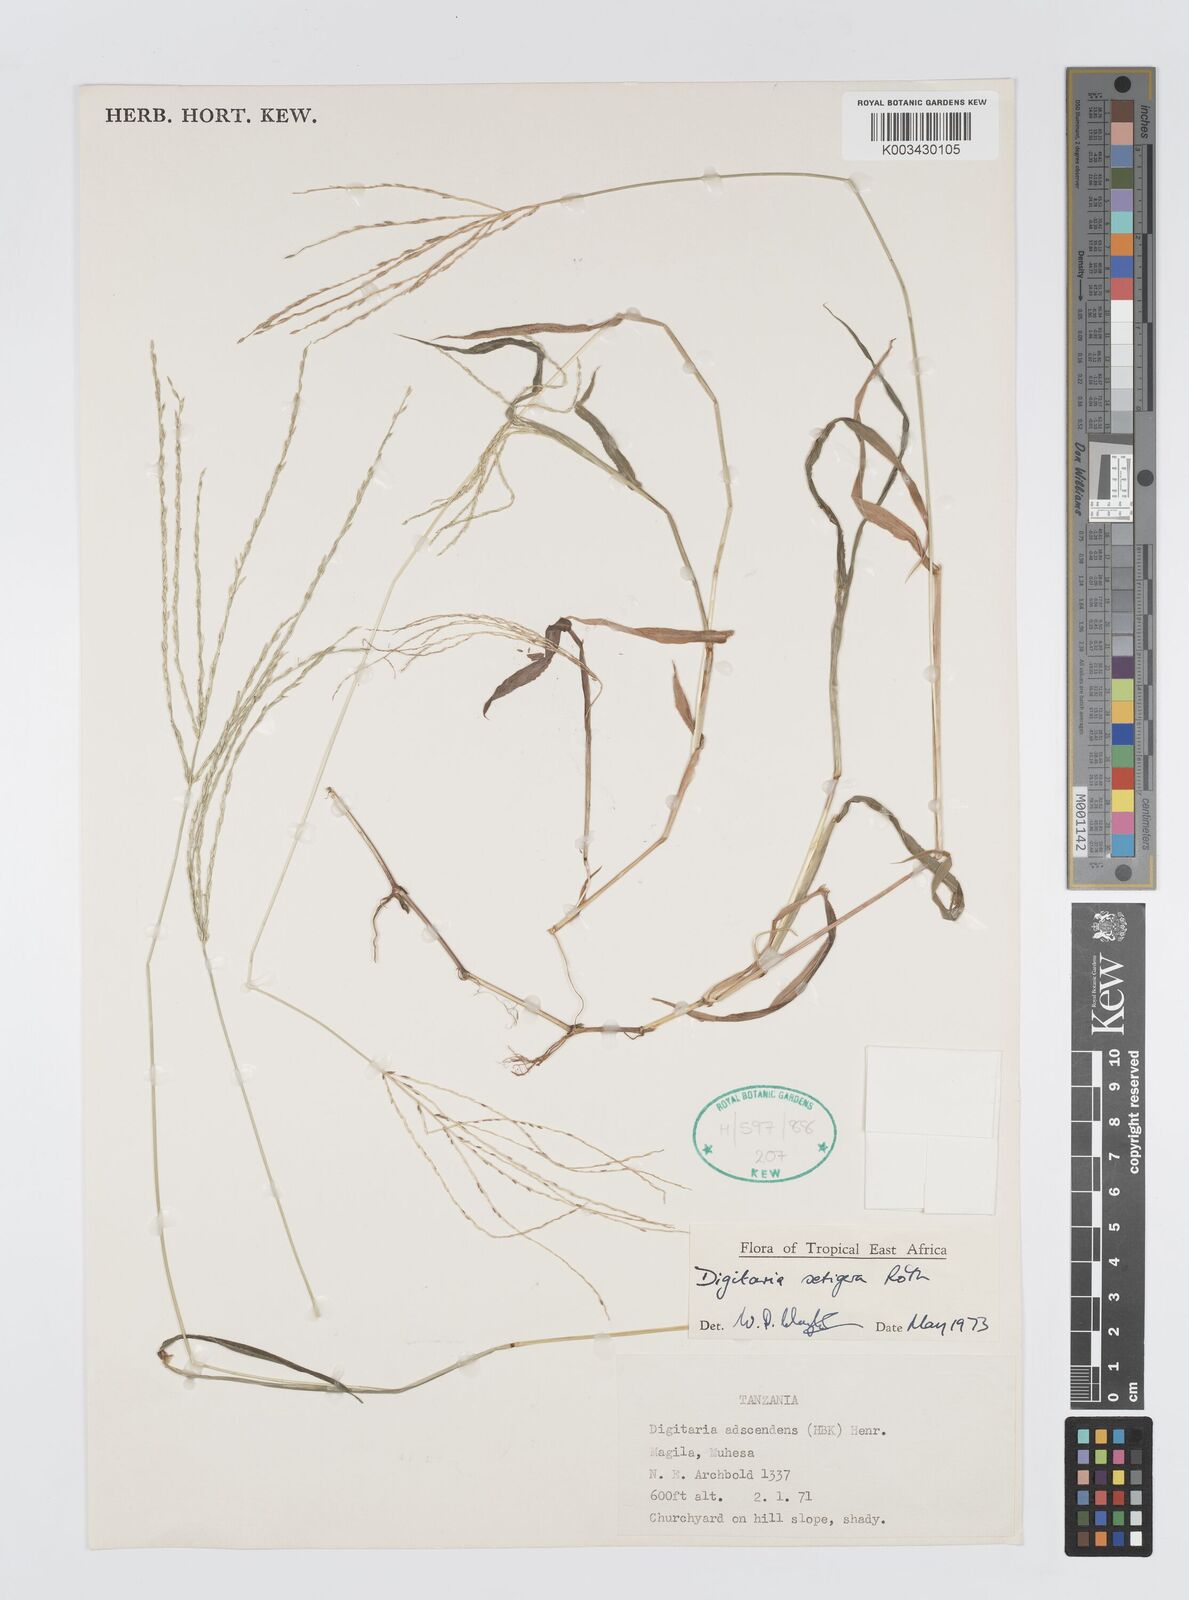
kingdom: Plantae
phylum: Tracheophyta
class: Liliopsida
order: Poales
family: Poaceae
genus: Digitaria
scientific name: Digitaria setigera
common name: East indian crabgrass
